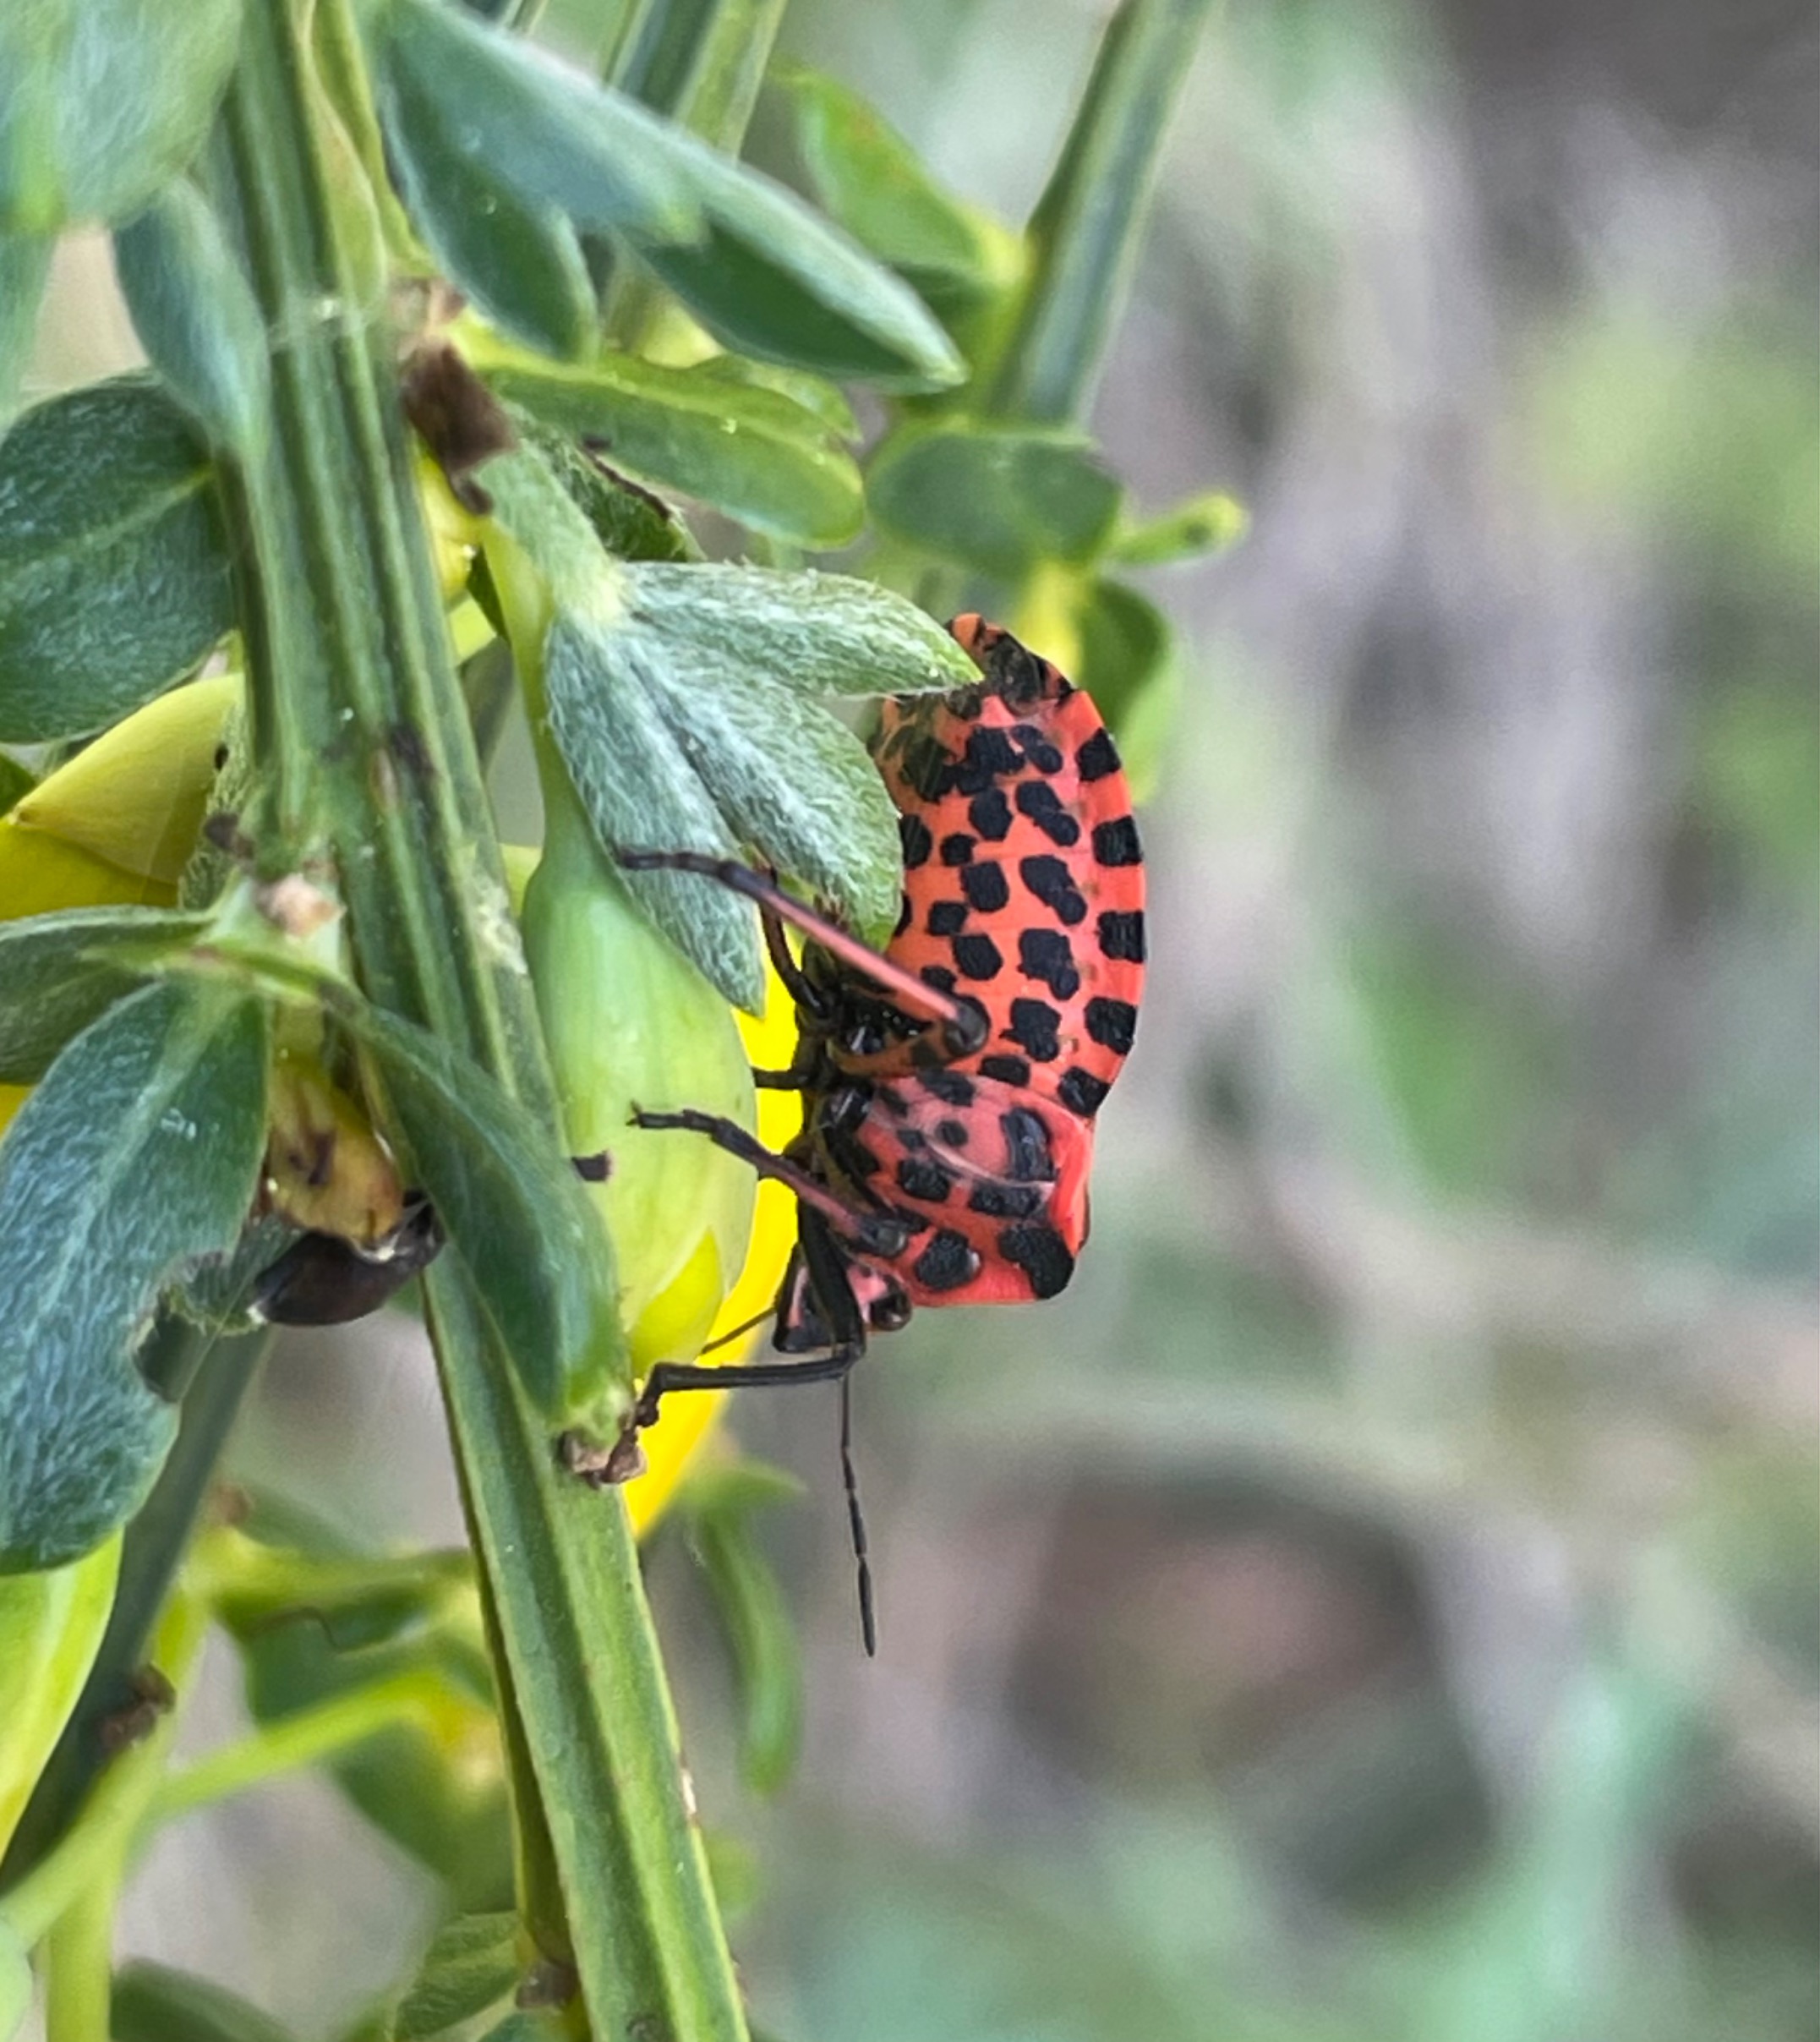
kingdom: Animalia
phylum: Arthropoda
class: Insecta
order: Hemiptera
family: Pentatomidae
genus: Graphosoma
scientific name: Graphosoma italicum
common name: Stribetæge
